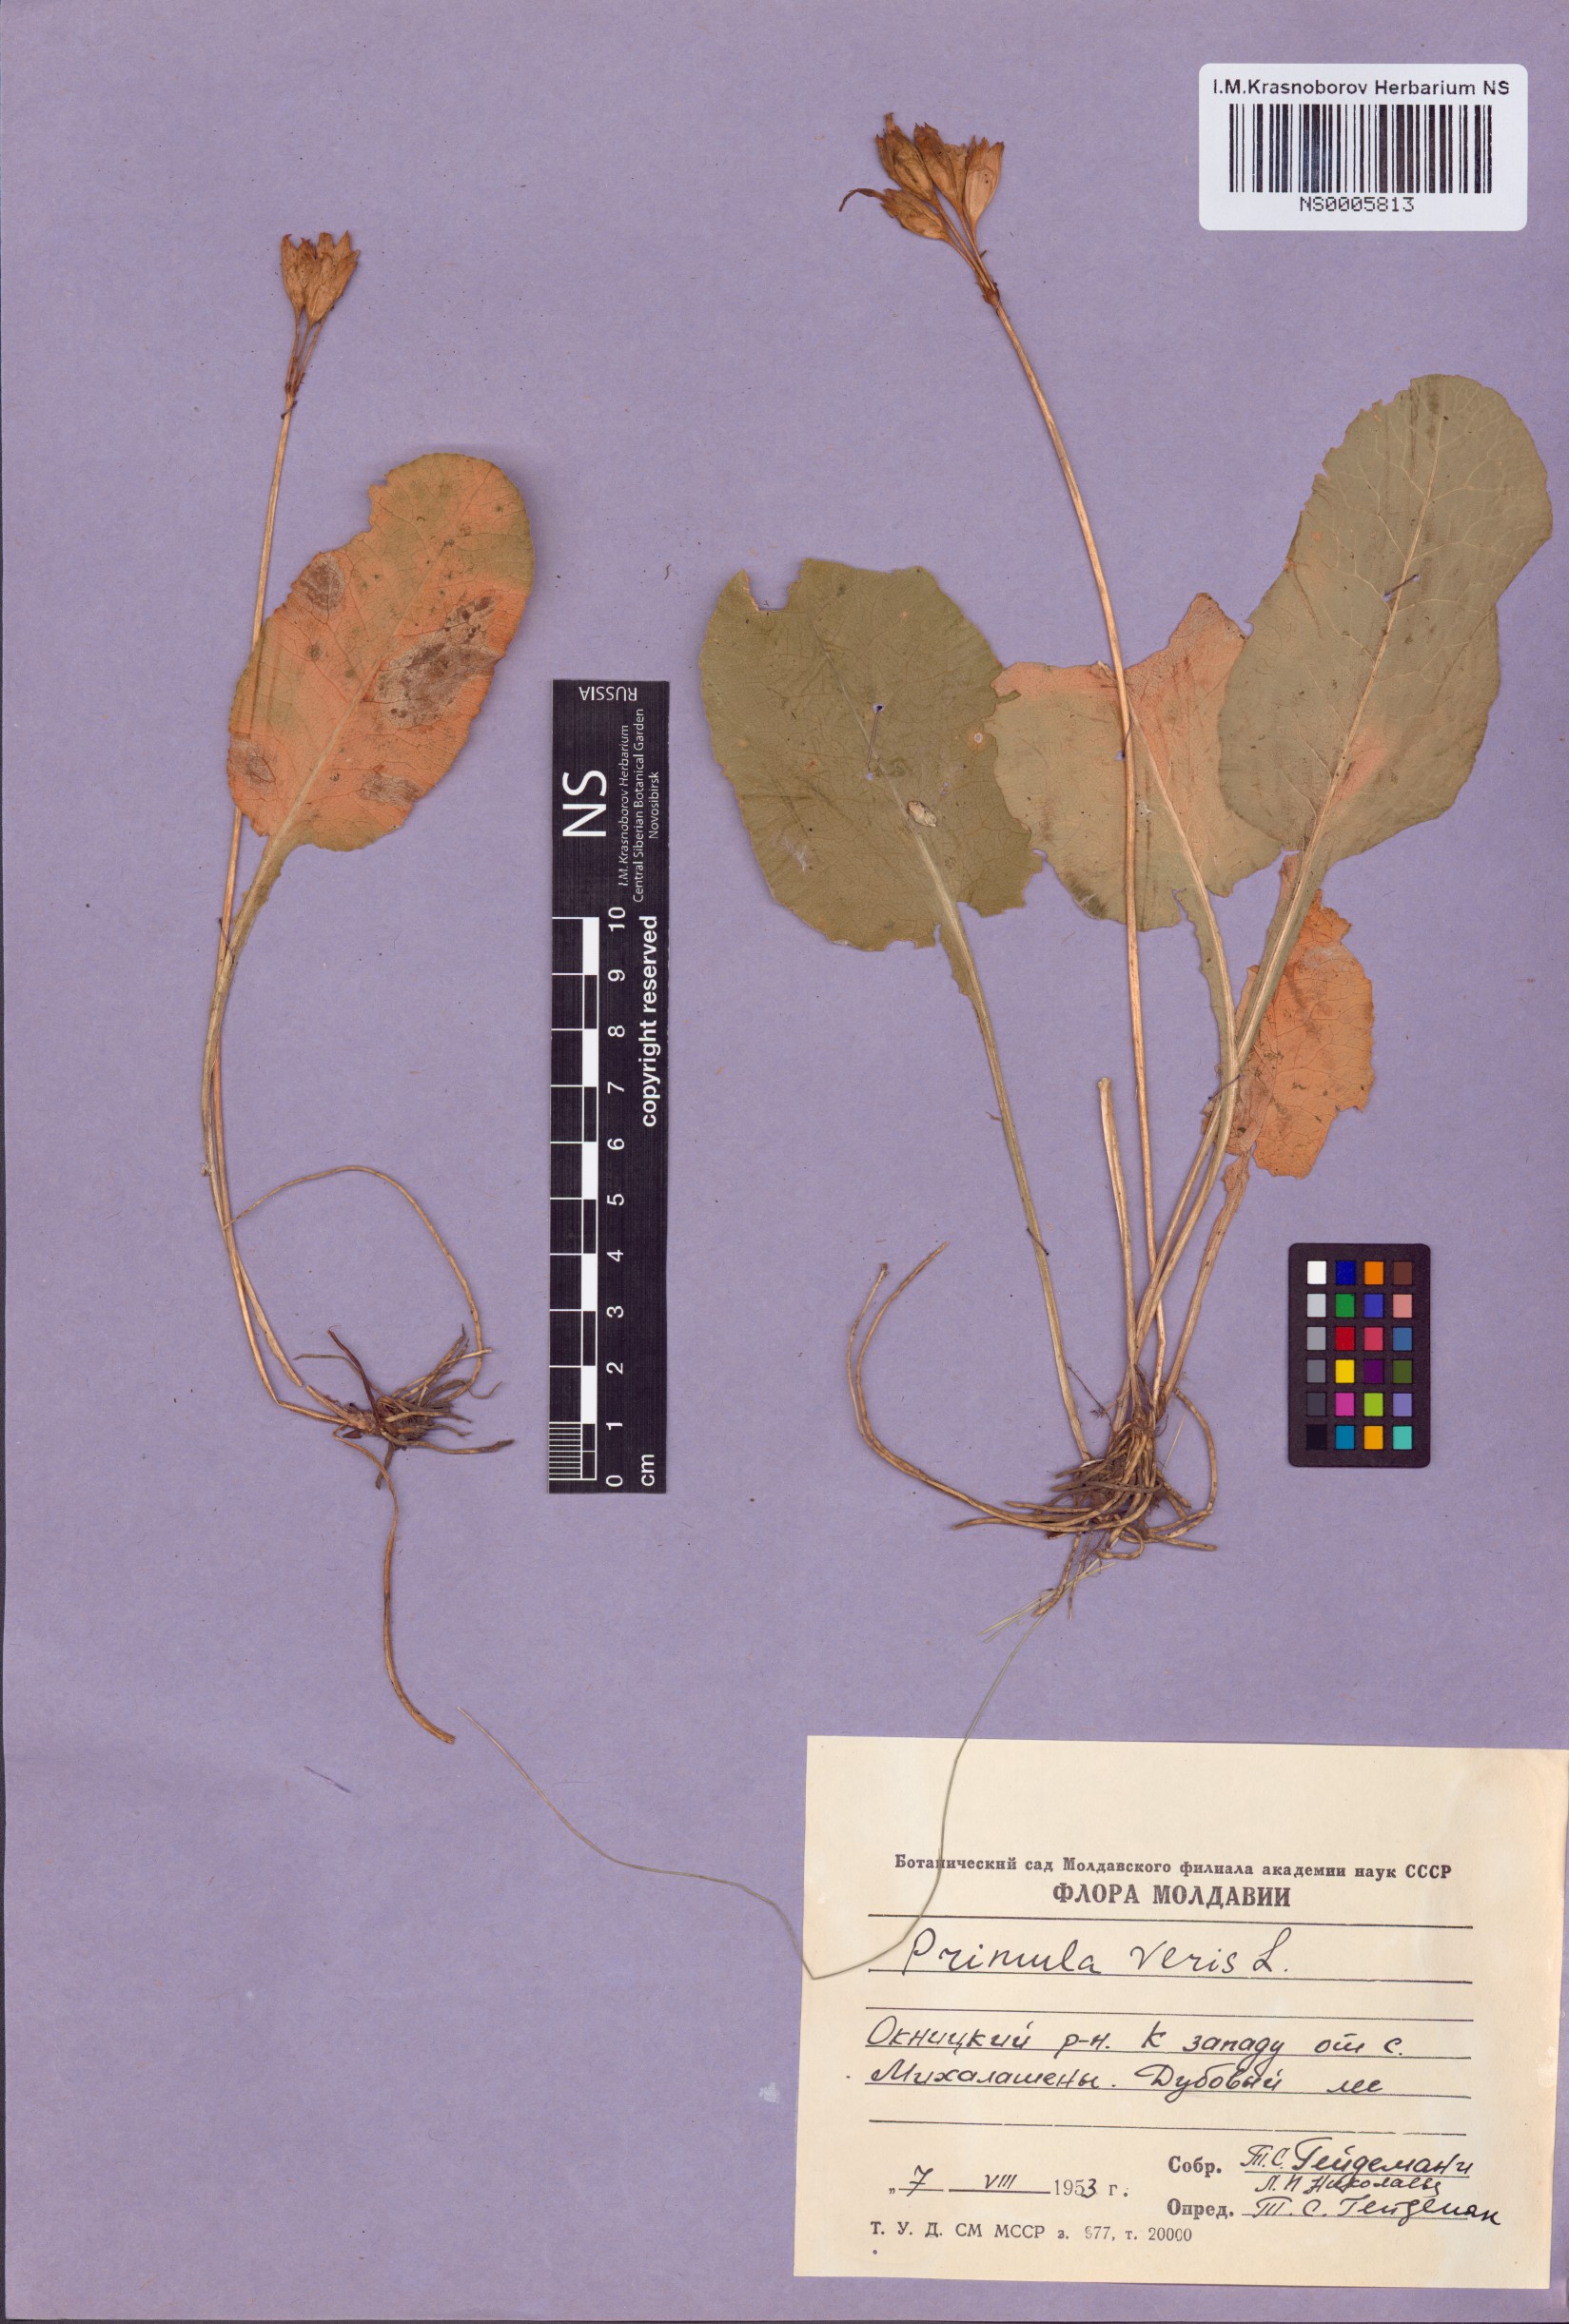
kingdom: Plantae
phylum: Tracheophyta
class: Magnoliopsida
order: Ericales
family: Primulaceae
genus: Primula
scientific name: Primula veris
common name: Cowslip
